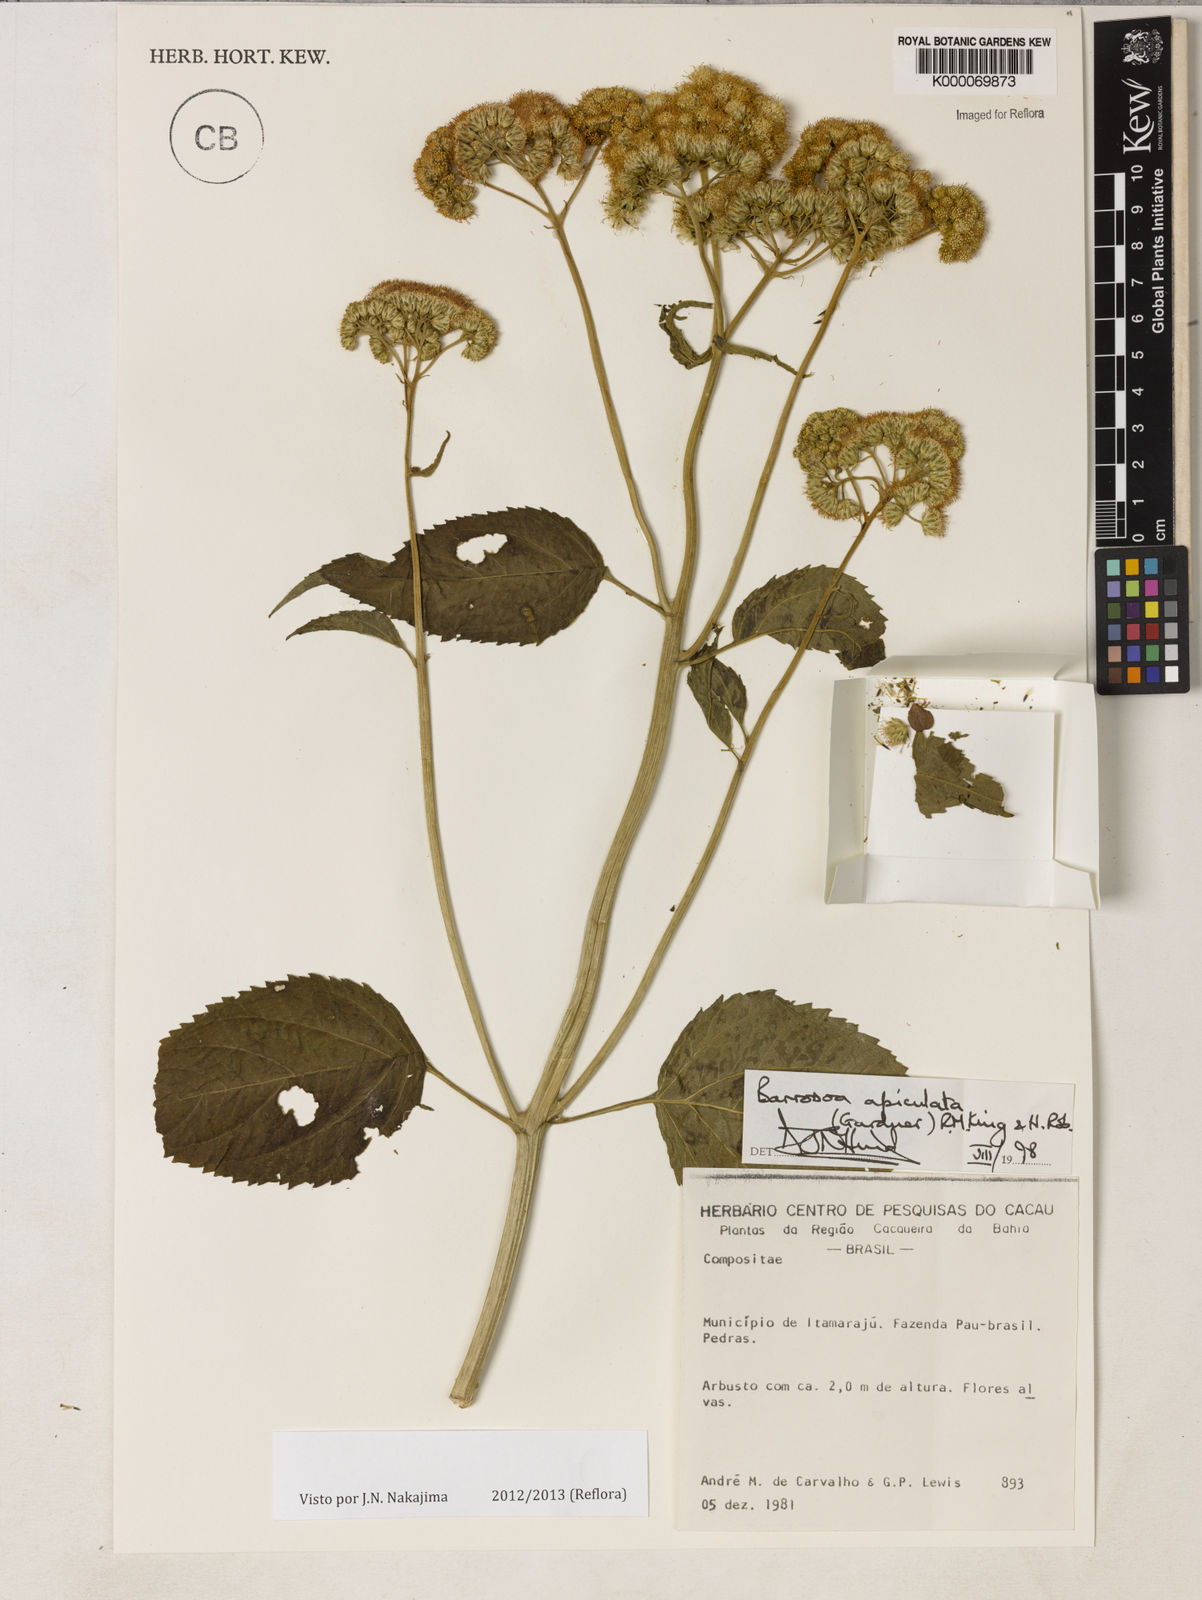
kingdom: Plantae
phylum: Tracheophyta
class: Magnoliopsida
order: Asterales
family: Asteraceae
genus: Barrosoa
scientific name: Barrosoa apiculata
